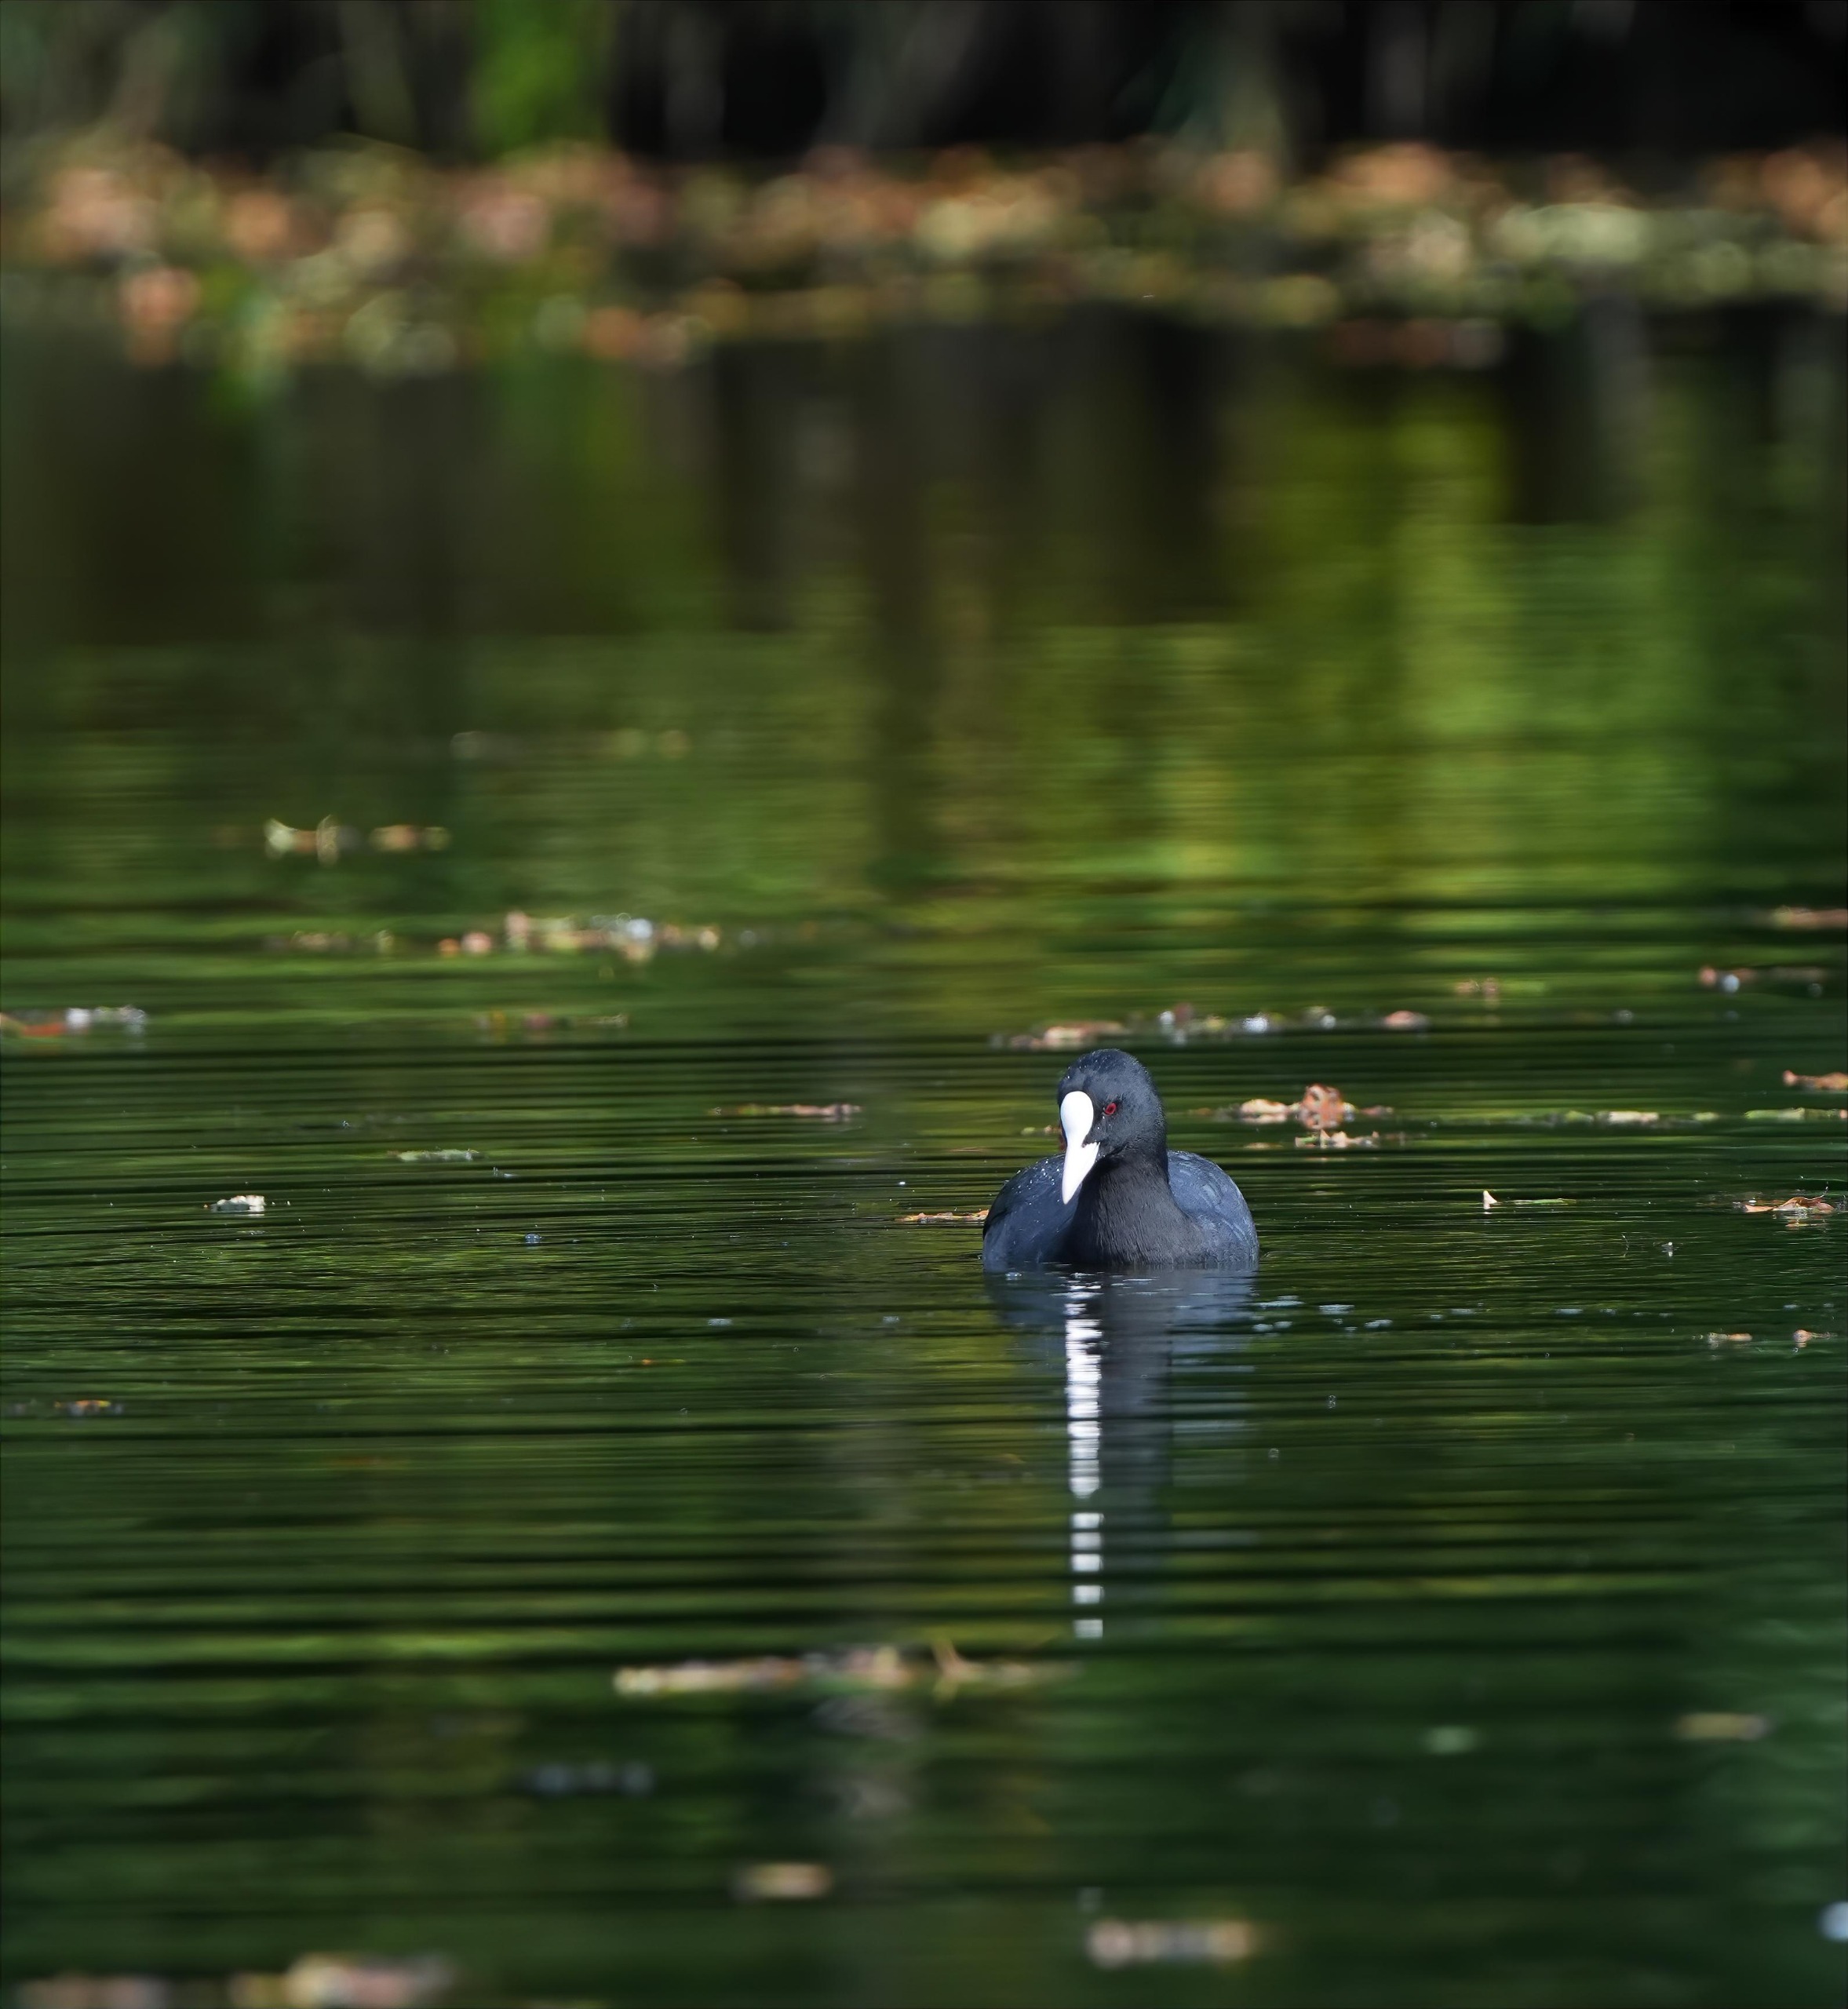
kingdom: Animalia
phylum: Chordata
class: Aves
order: Gruiformes
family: Rallidae
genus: Fulica
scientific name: Fulica atra
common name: Blishøne
